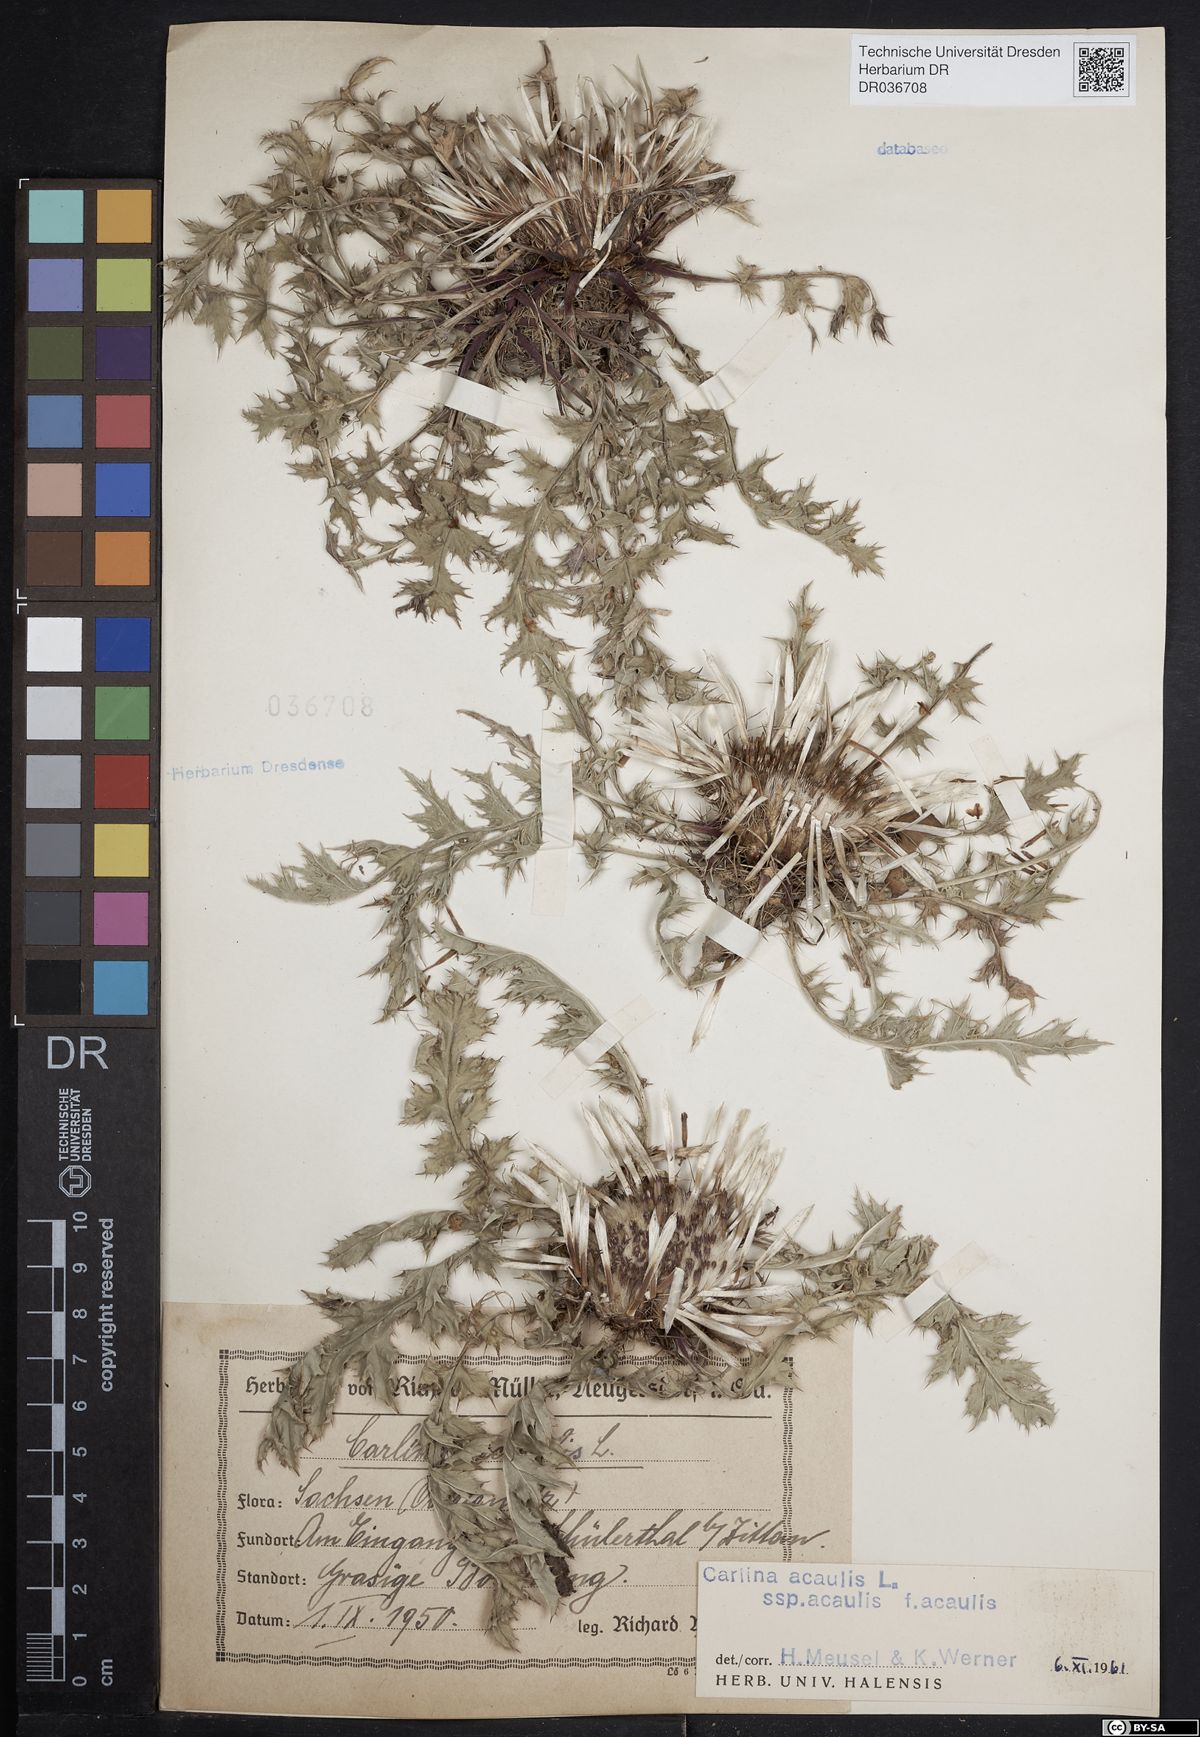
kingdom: Plantae
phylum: Tracheophyta
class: Magnoliopsida
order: Asterales
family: Asteraceae
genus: Carlina
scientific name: Carlina acaulis
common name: Stemless carline thistle
